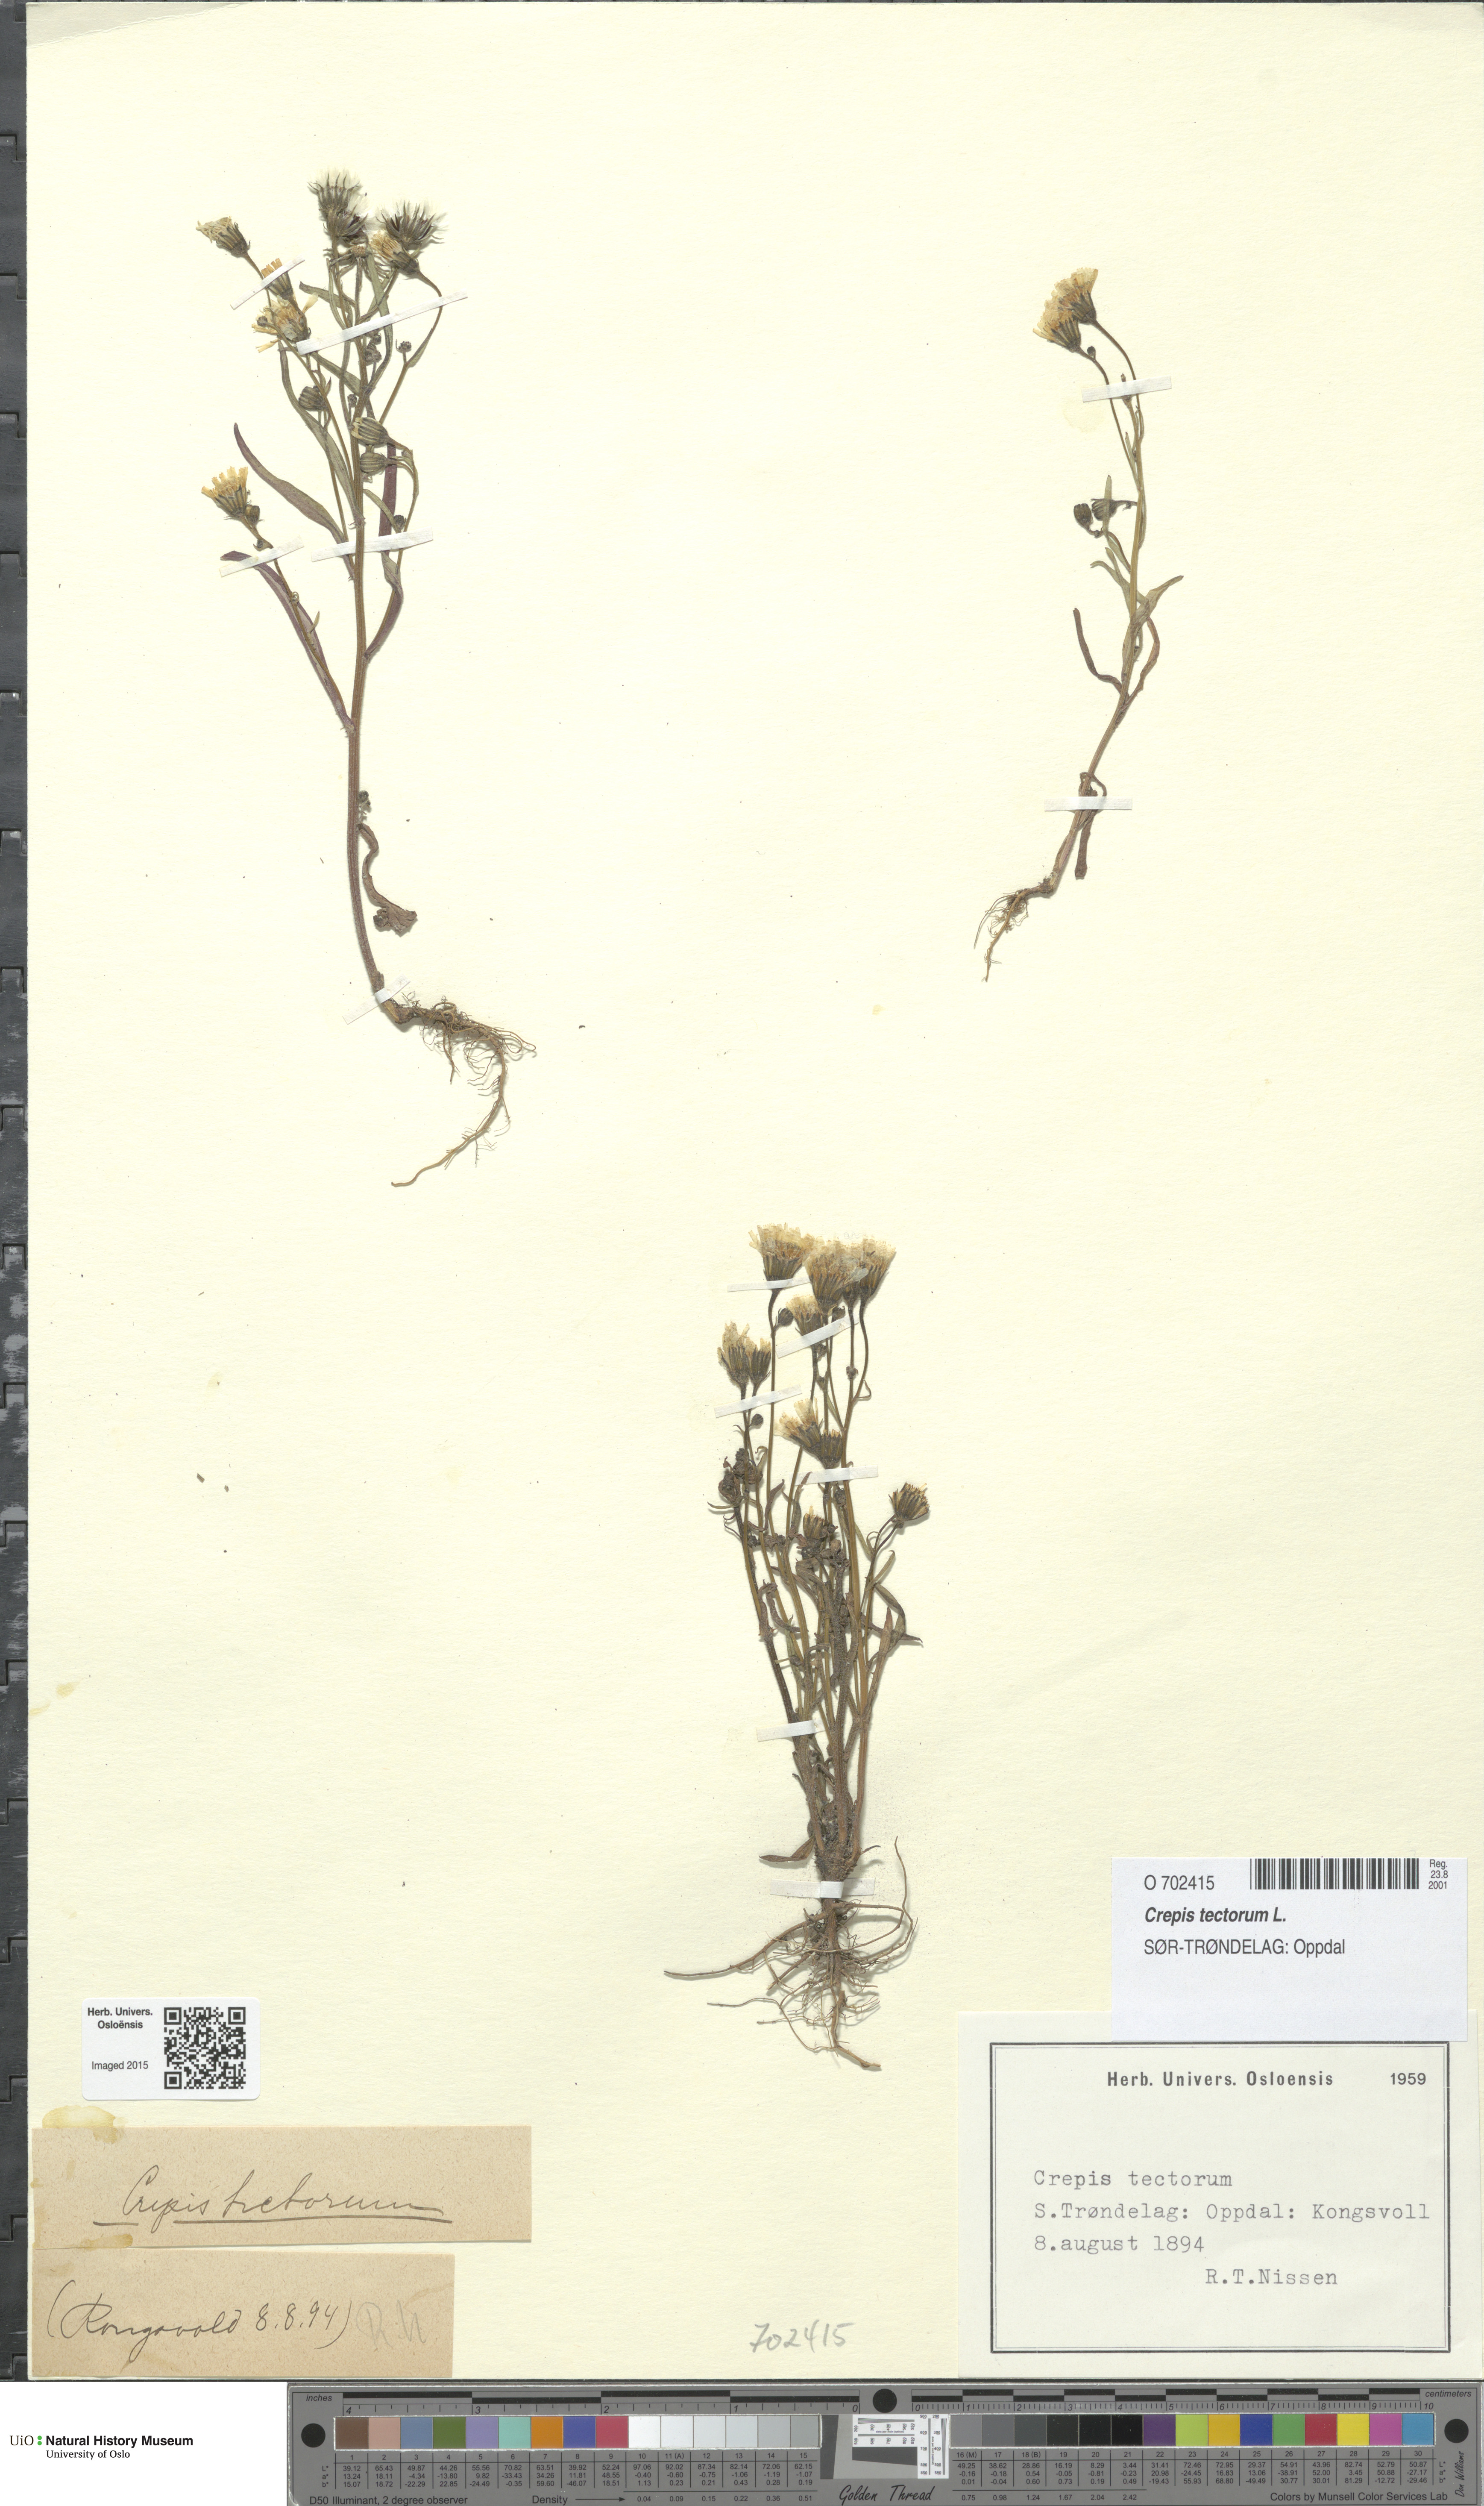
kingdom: Plantae
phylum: Tracheophyta
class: Magnoliopsida
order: Asterales
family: Asteraceae
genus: Crepis
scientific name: Crepis tectorum
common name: Narrow-leaved hawk's-beard
